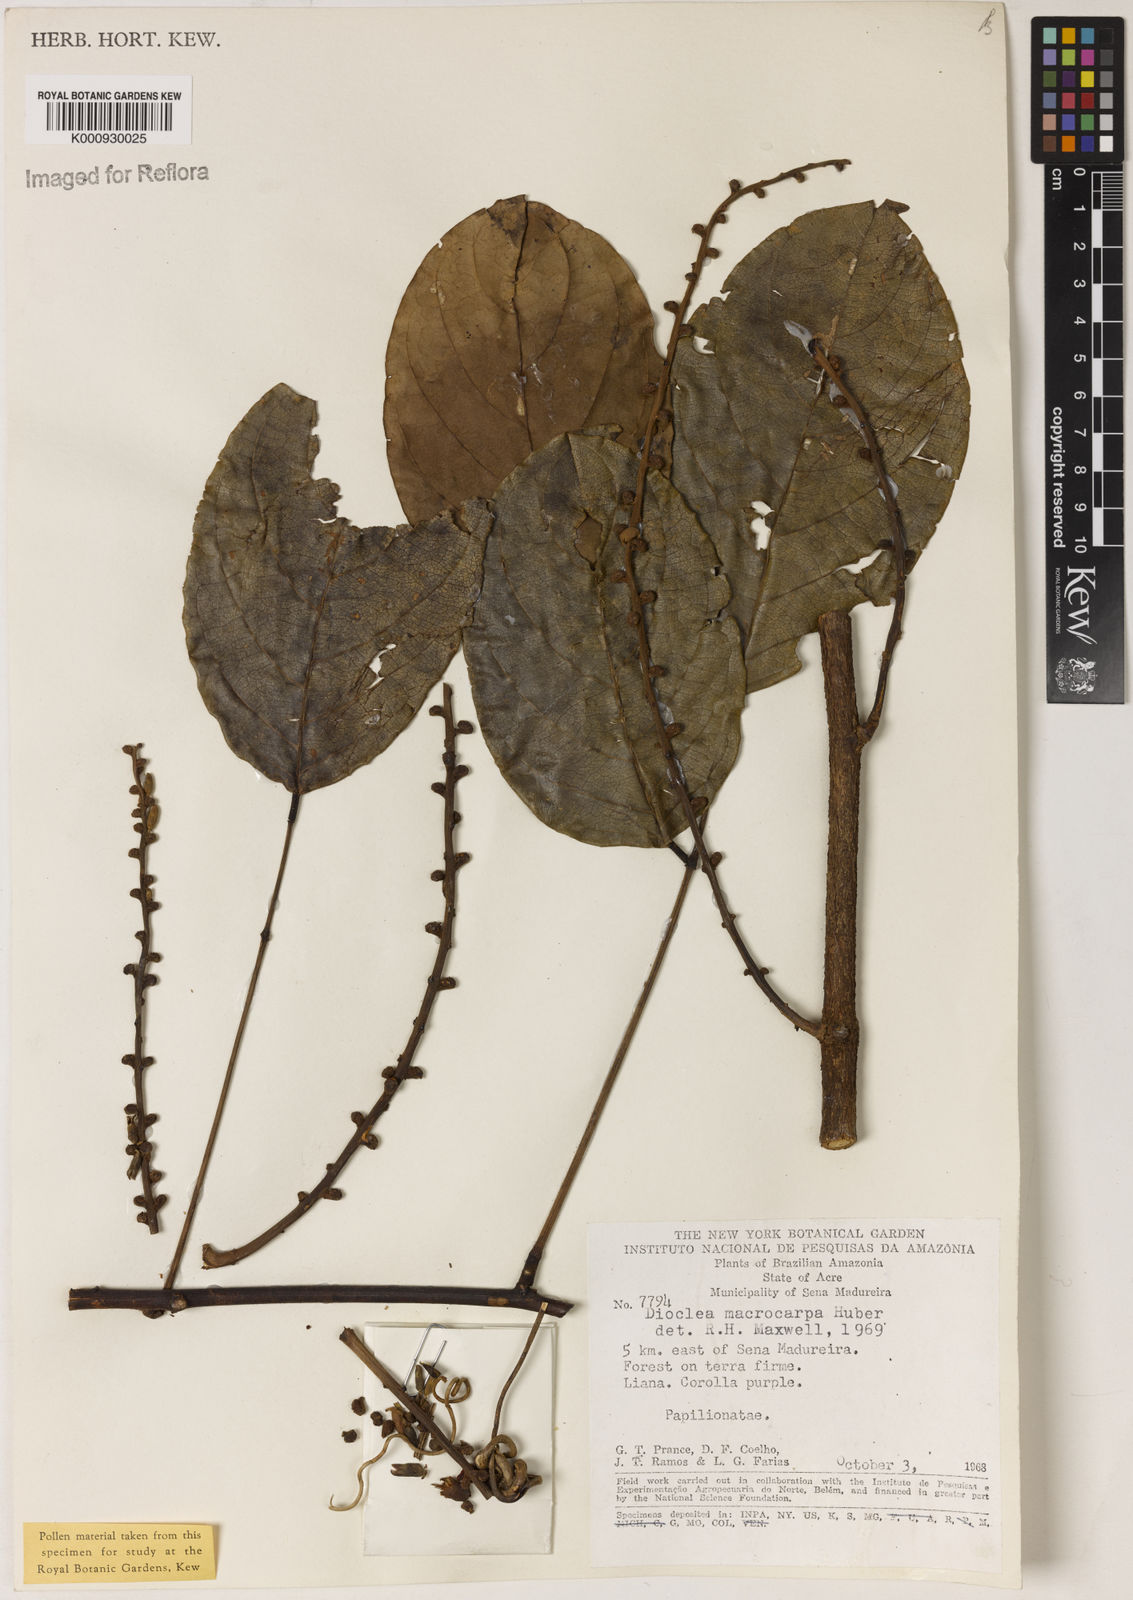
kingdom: Plantae
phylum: Tracheophyta
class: Magnoliopsida
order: Fabales
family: Fabaceae
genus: Macropsychanthus
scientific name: Macropsychanthus macrocarpus
